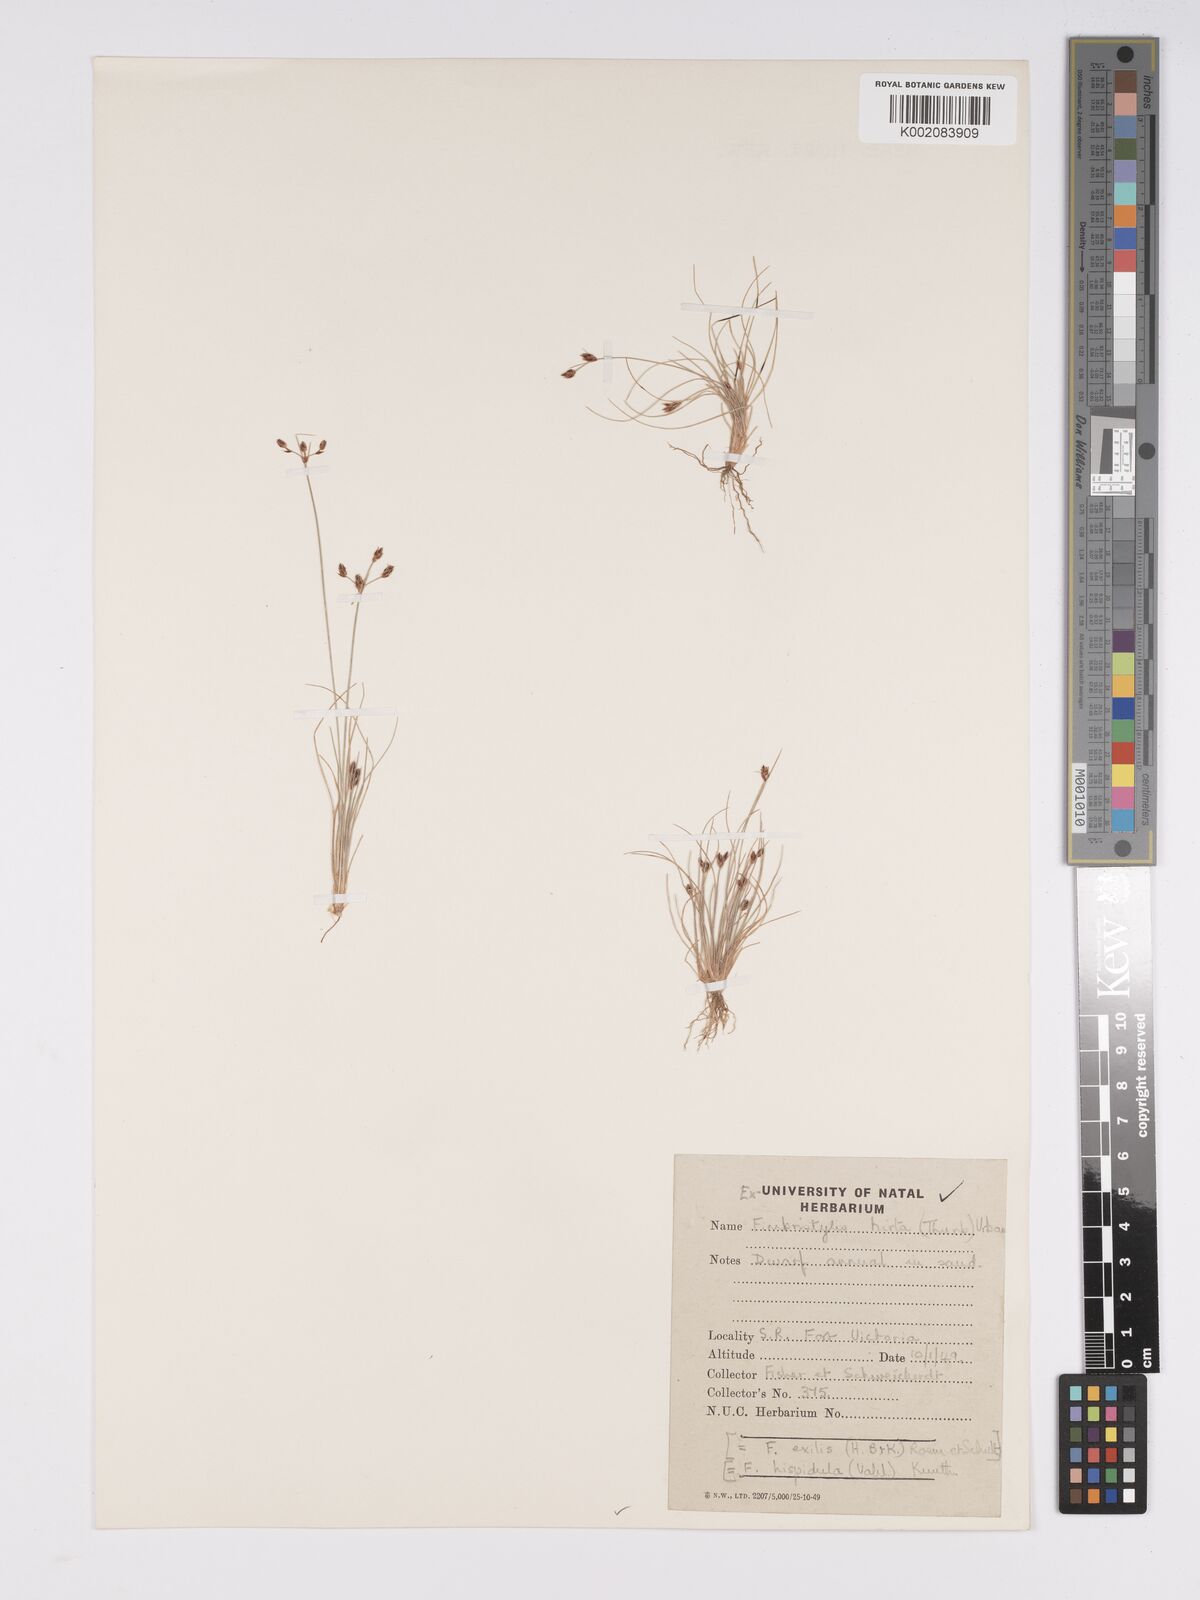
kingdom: Plantae
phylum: Tracheophyta
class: Liliopsida
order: Poales
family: Cyperaceae
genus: Bulbostylis
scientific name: Bulbostylis hispidula
